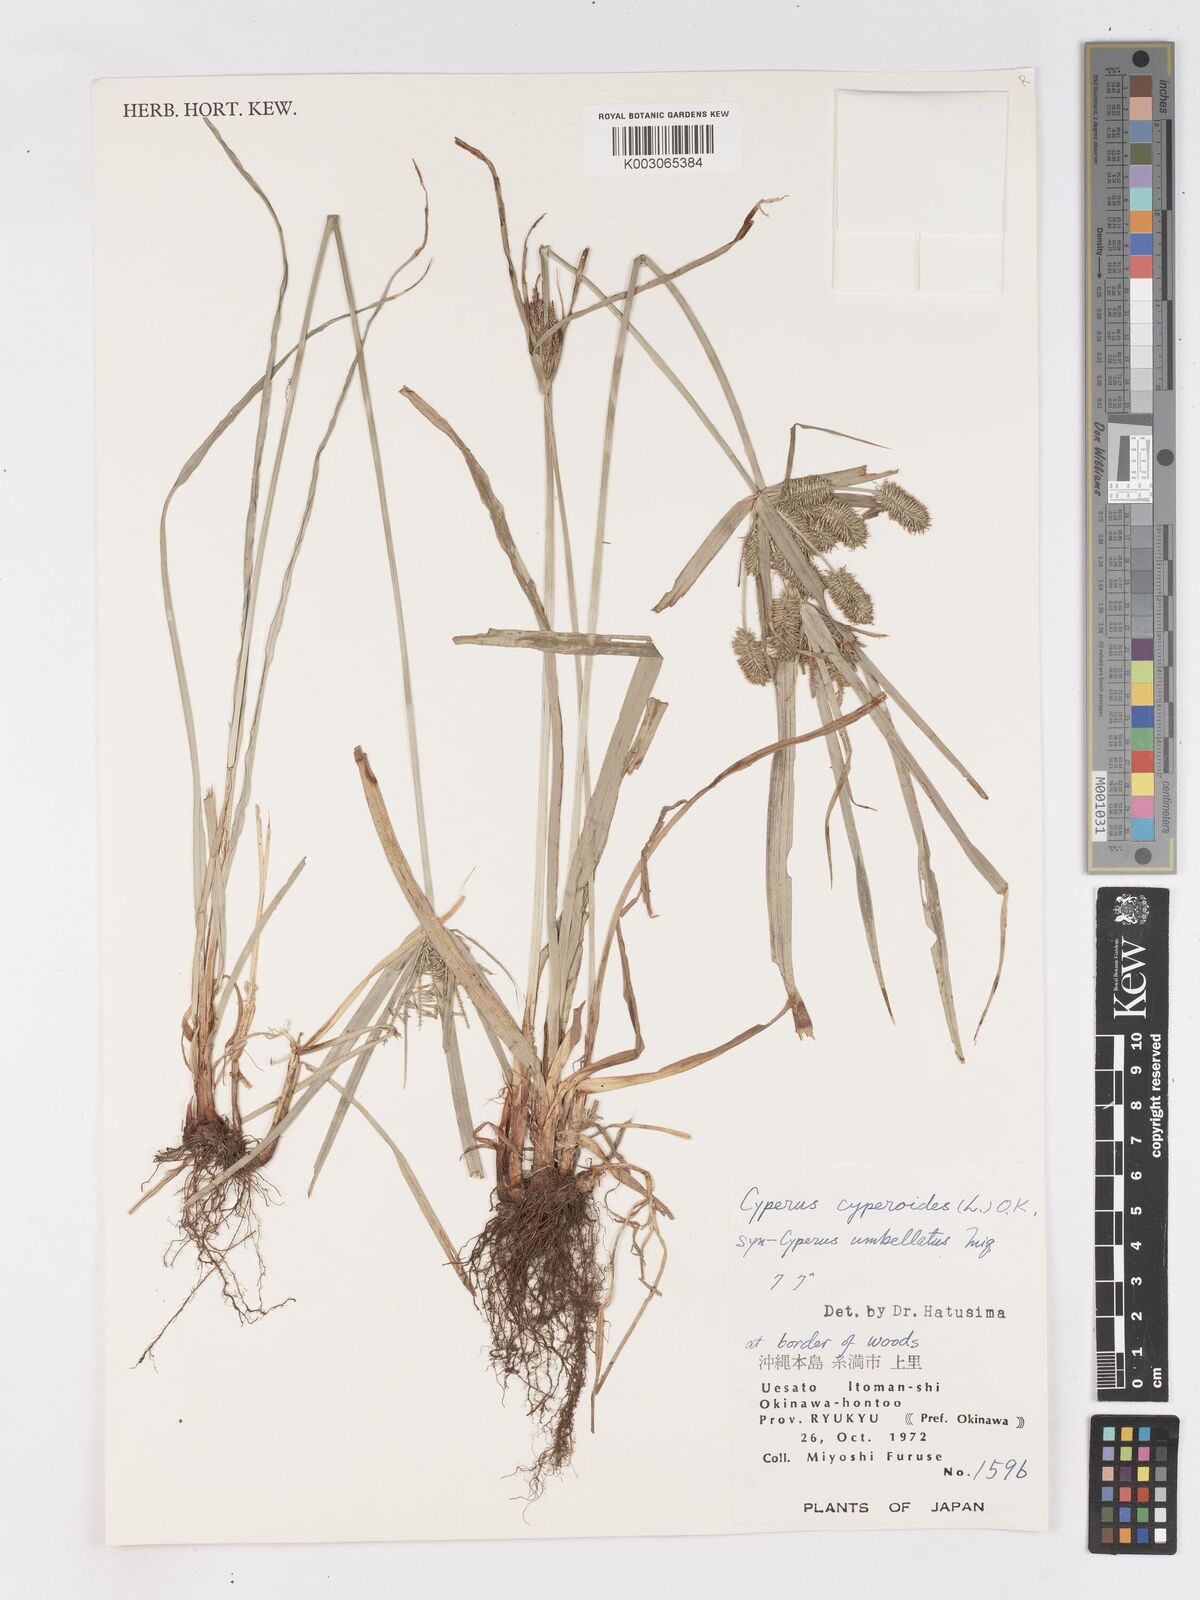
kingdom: Plantae
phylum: Tracheophyta
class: Liliopsida
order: Poales
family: Cyperaceae
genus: Cyperus
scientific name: Cyperus cyperoides
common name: Pacific island flat sedge
